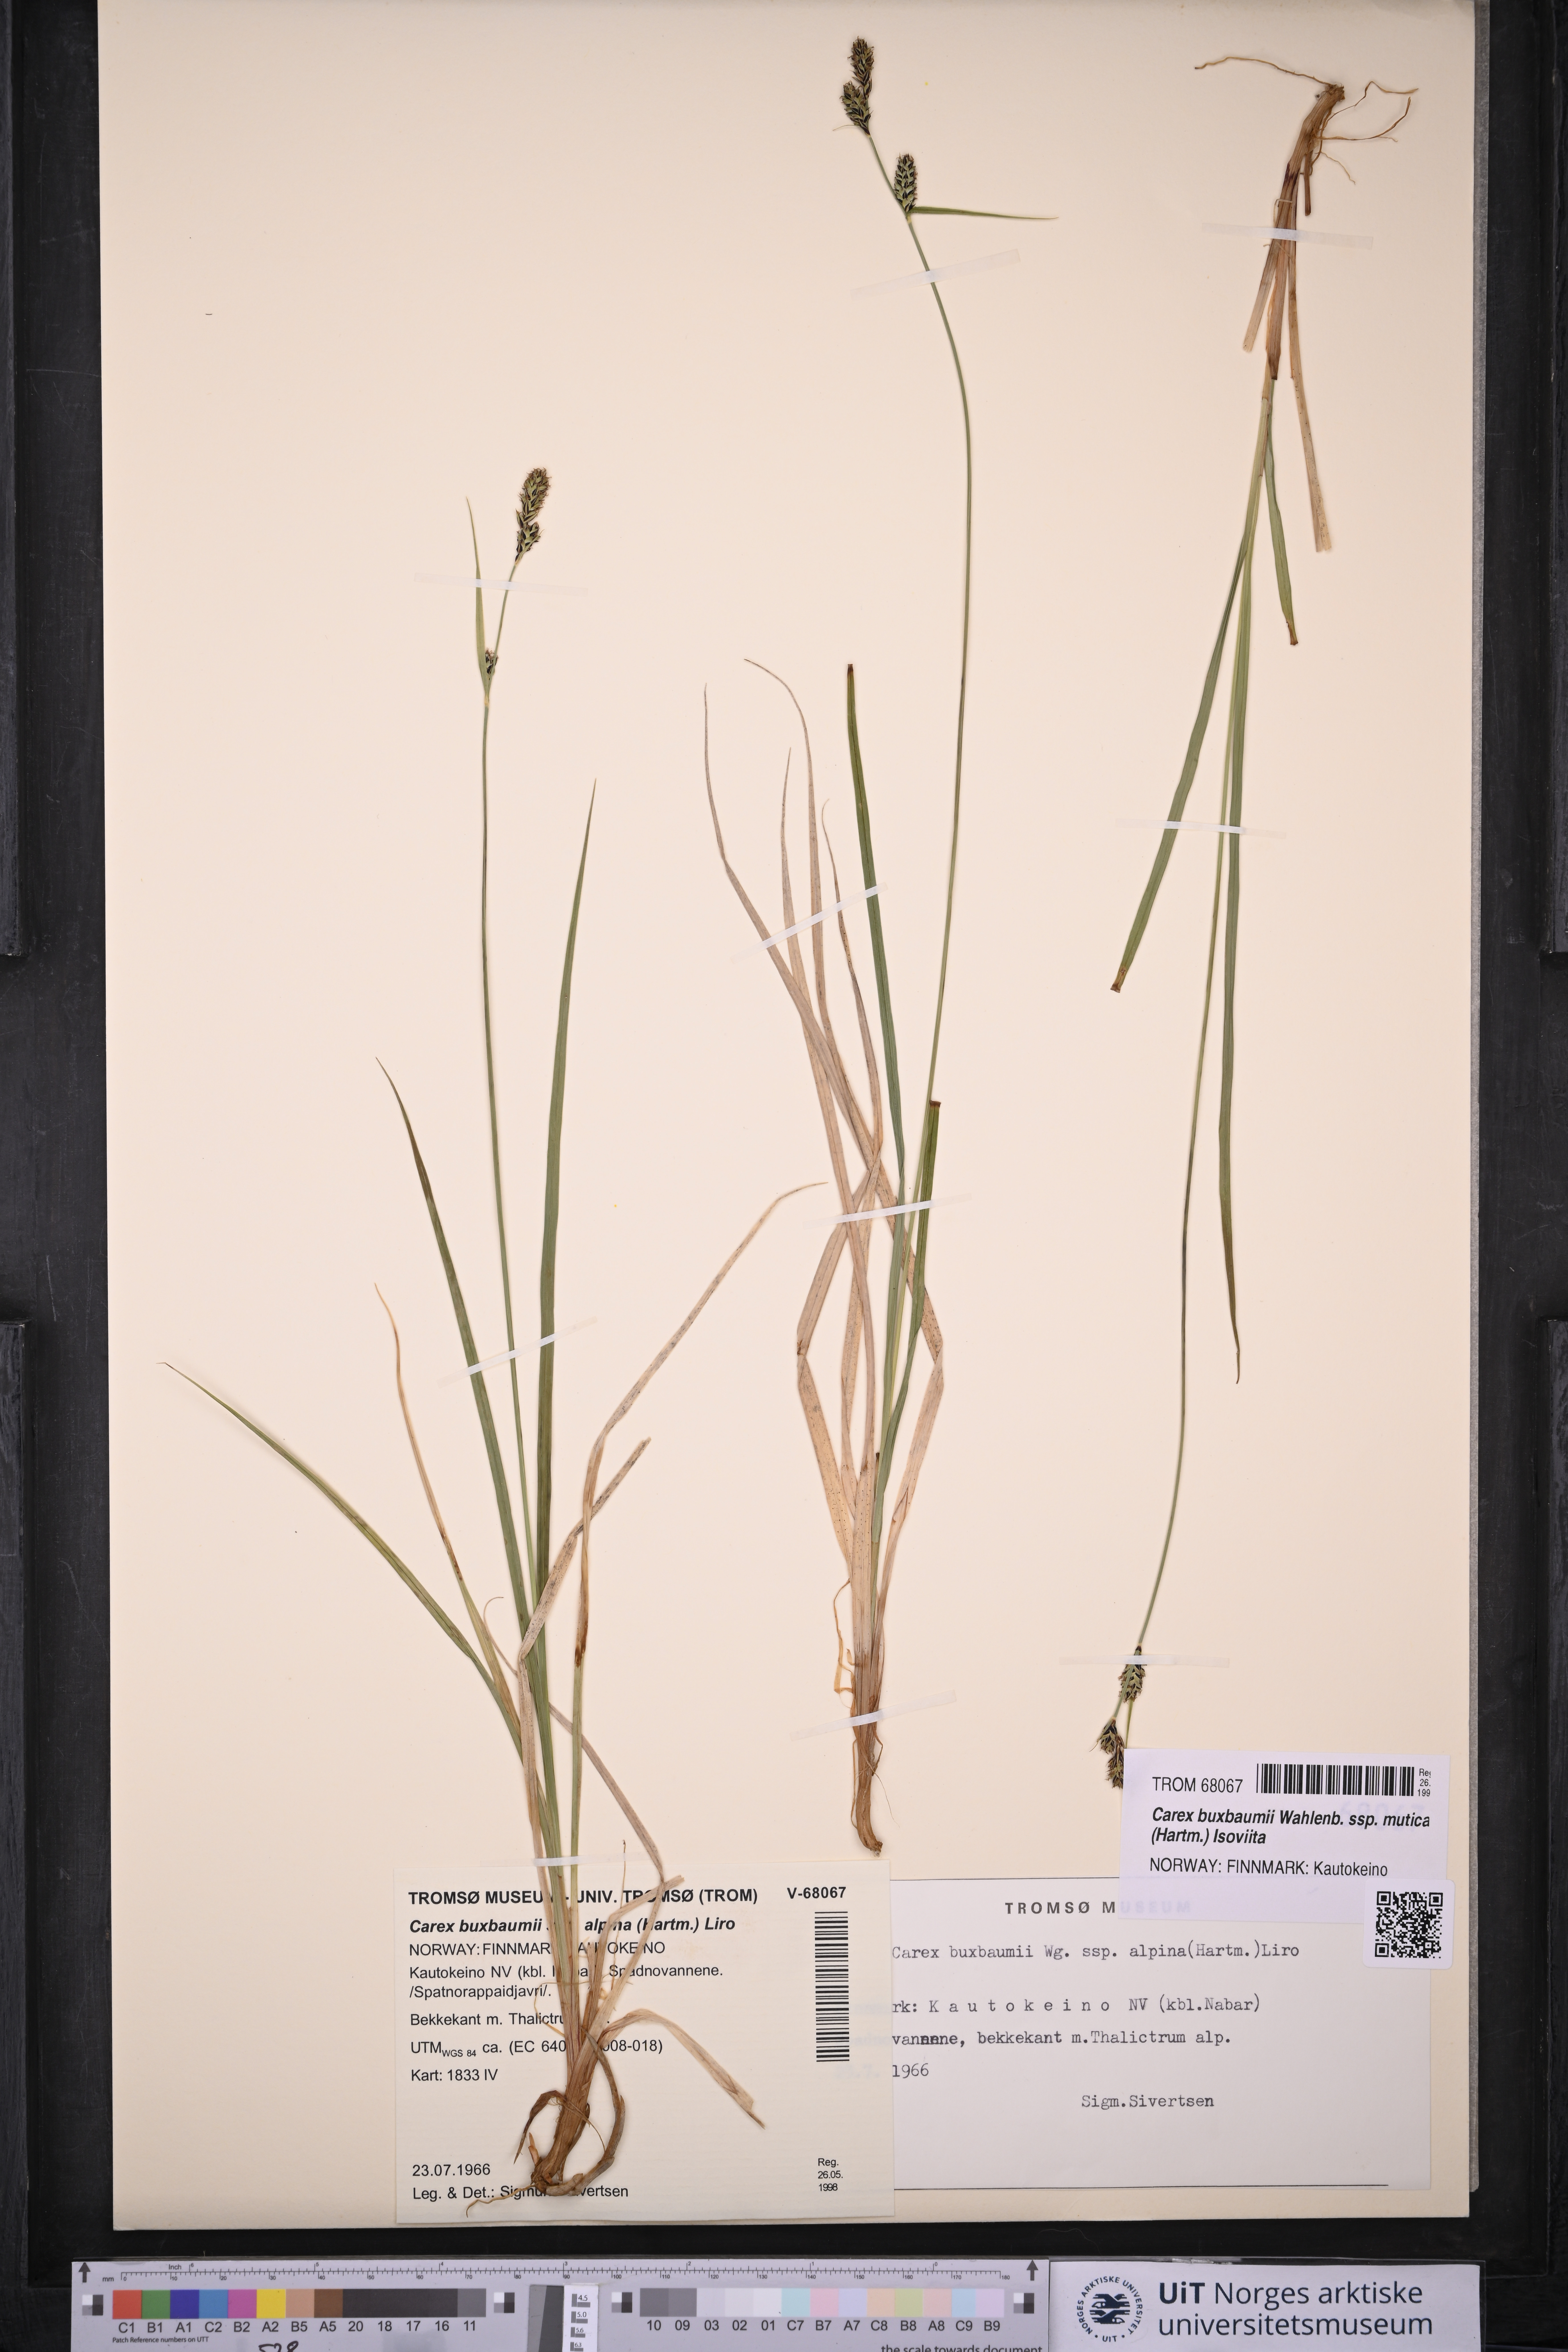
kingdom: Plantae
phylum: Tracheophyta
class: Liliopsida
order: Poales
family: Cyperaceae
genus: Carex
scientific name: Carex adelostoma
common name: Circumpolar sedge
